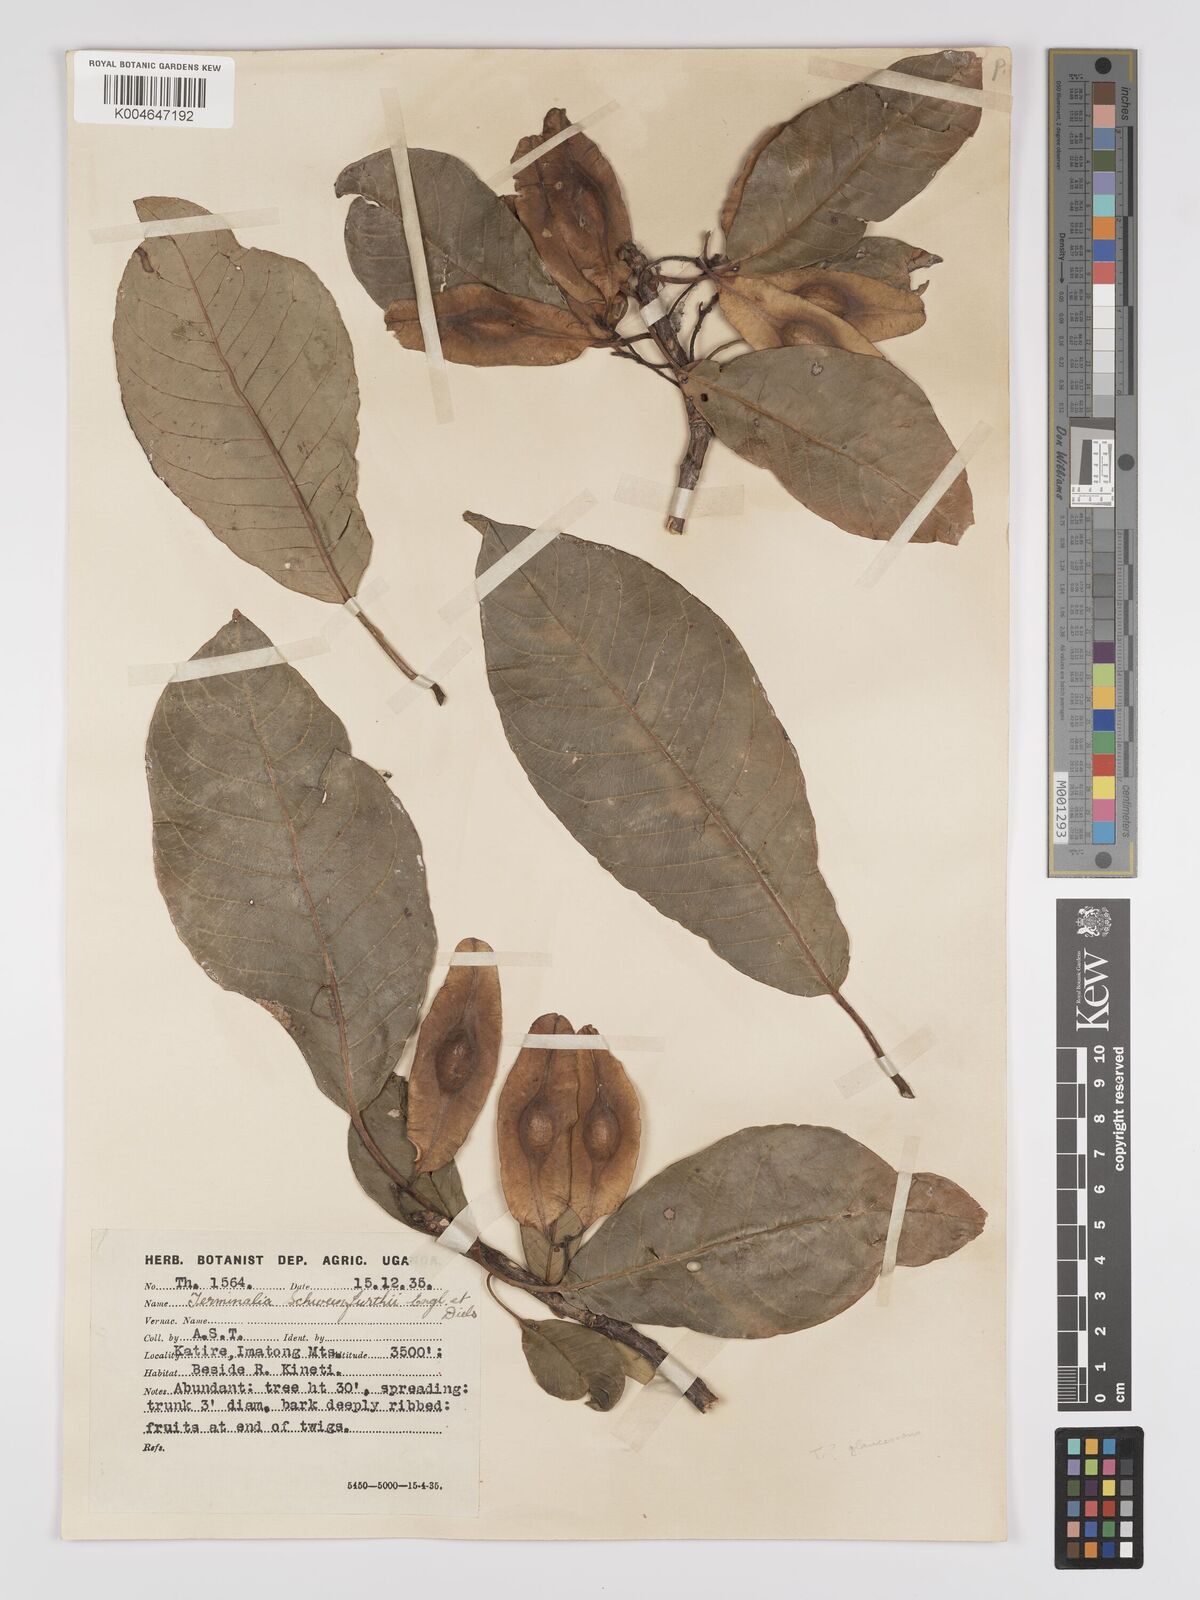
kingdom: Plantae
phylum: Tracheophyta
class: Magnoliopsida
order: Myrtales
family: Combretaceae
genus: Terminalia
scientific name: Terminalia schimperiana
